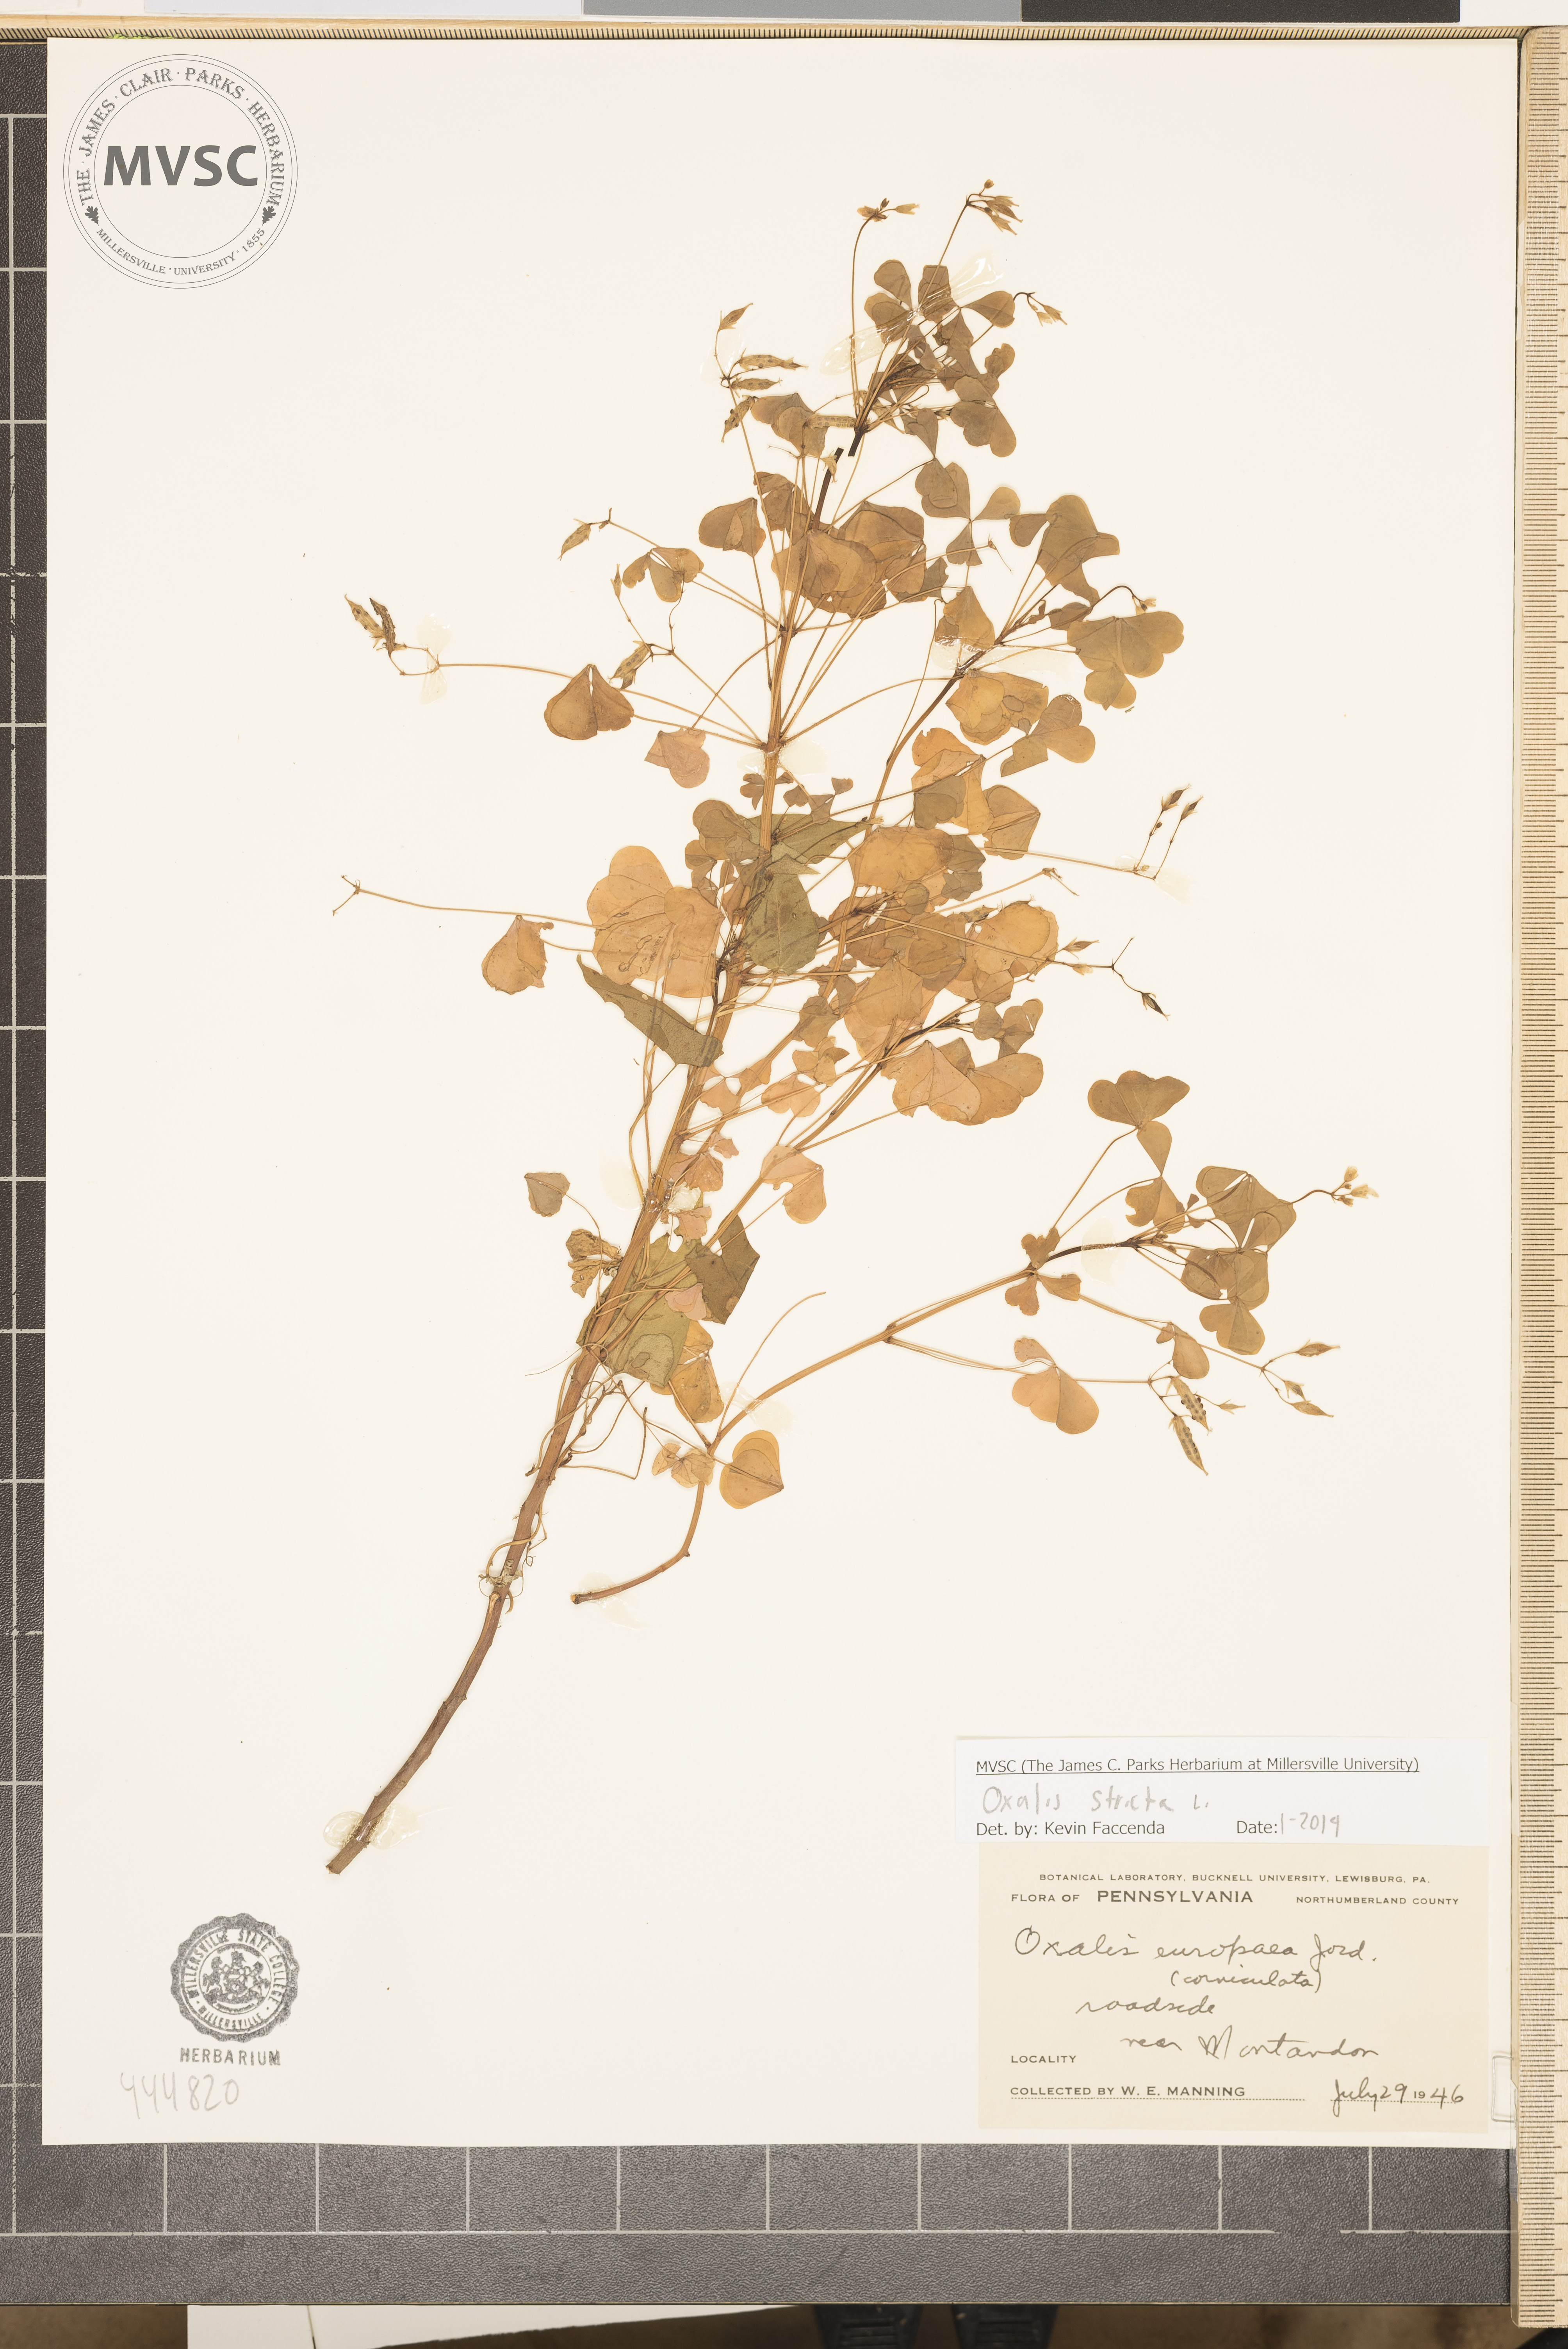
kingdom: Plantae
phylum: Tracheophyta
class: Magnoliopsida
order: Oxalidales
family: Oxalidaceae
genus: Oxalis
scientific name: Oxalis stricta
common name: Upright yellow-sorrel
